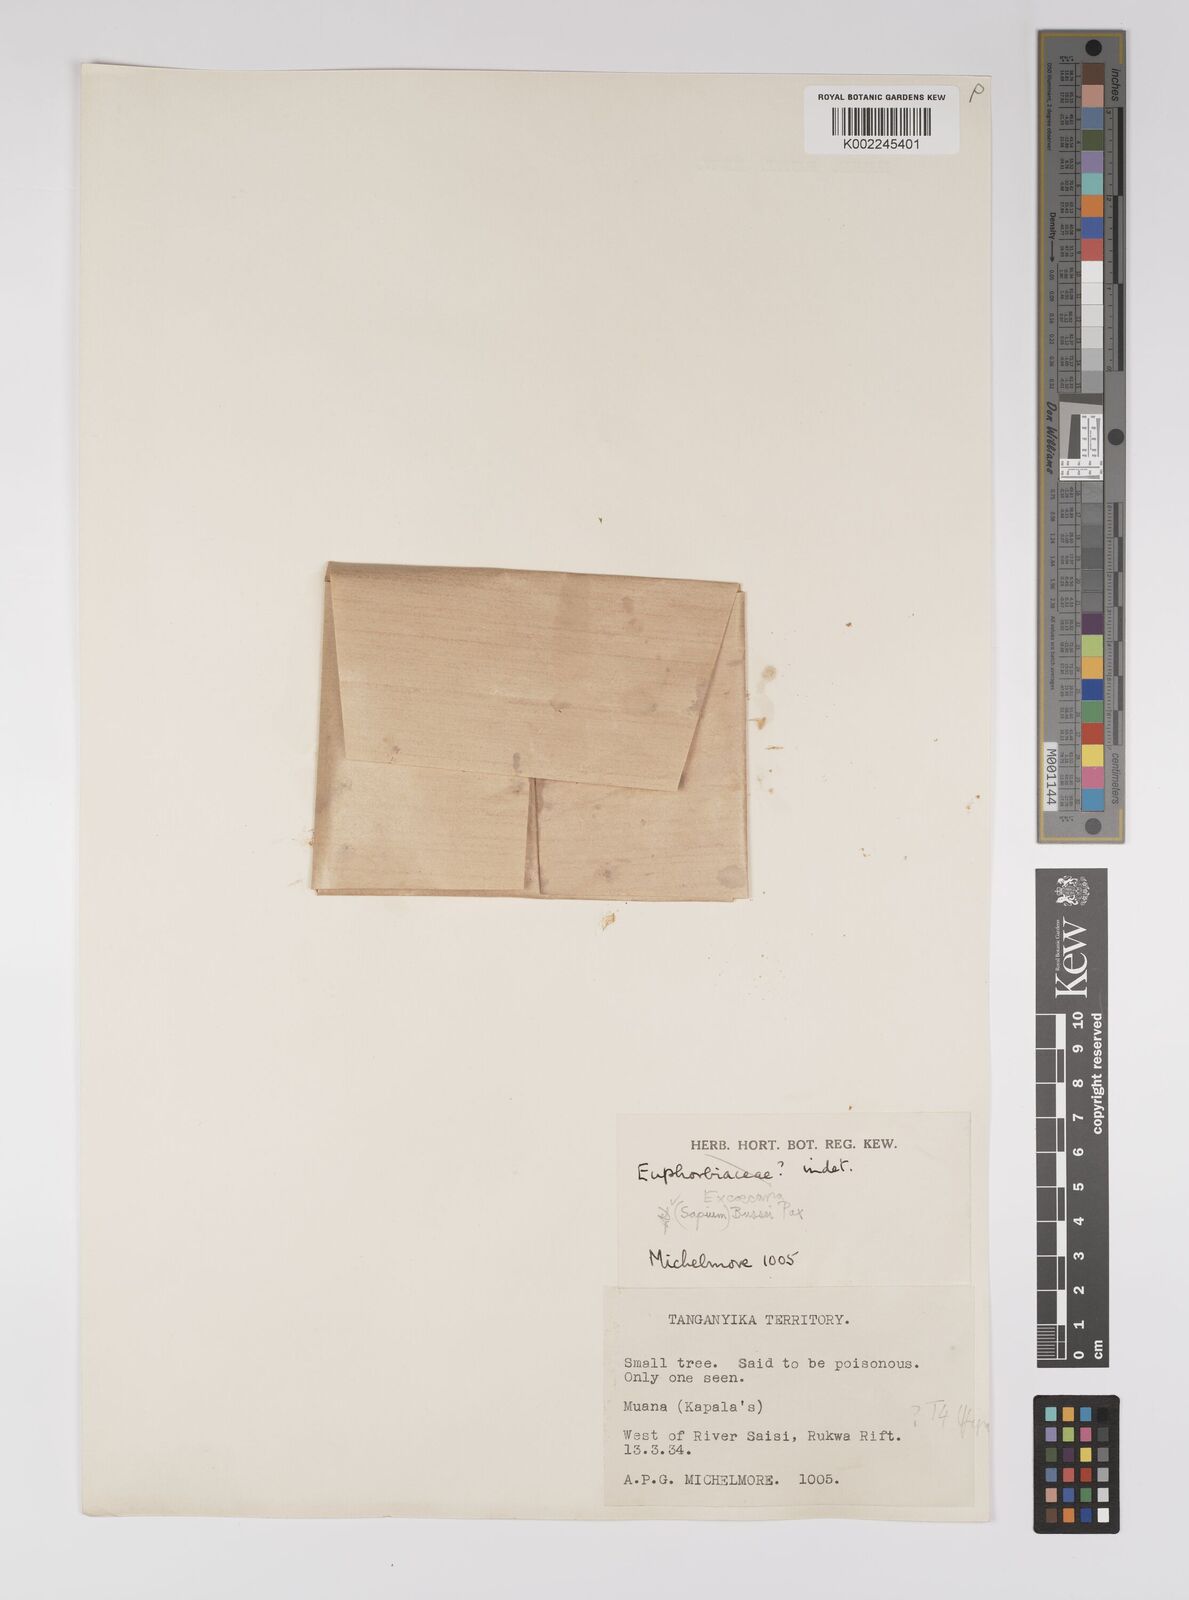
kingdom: Plantae
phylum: Tracheophyta
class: Magnoliopsida
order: Malpighiales
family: Euphorbiaceae
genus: Excoecaria
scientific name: Excoecaria bussei
